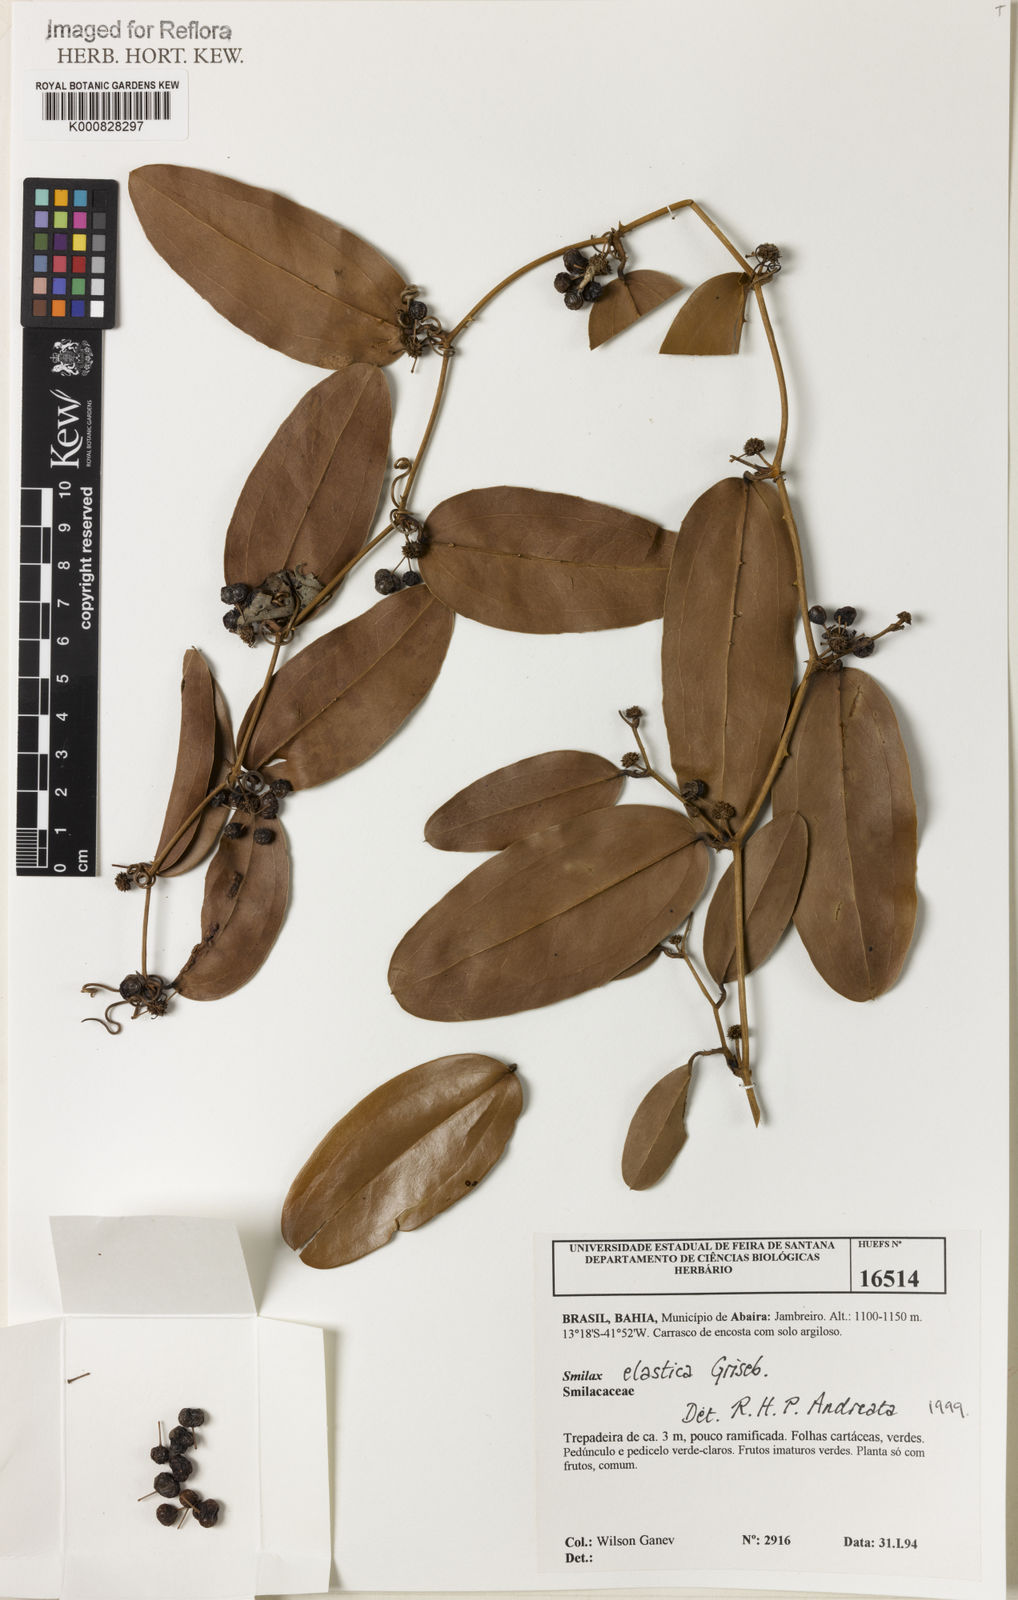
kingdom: Plantae
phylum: Tracheophyta
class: Liliopsida
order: Liliales
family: Smilacaceae
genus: Smilax
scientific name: Smilax elastica
